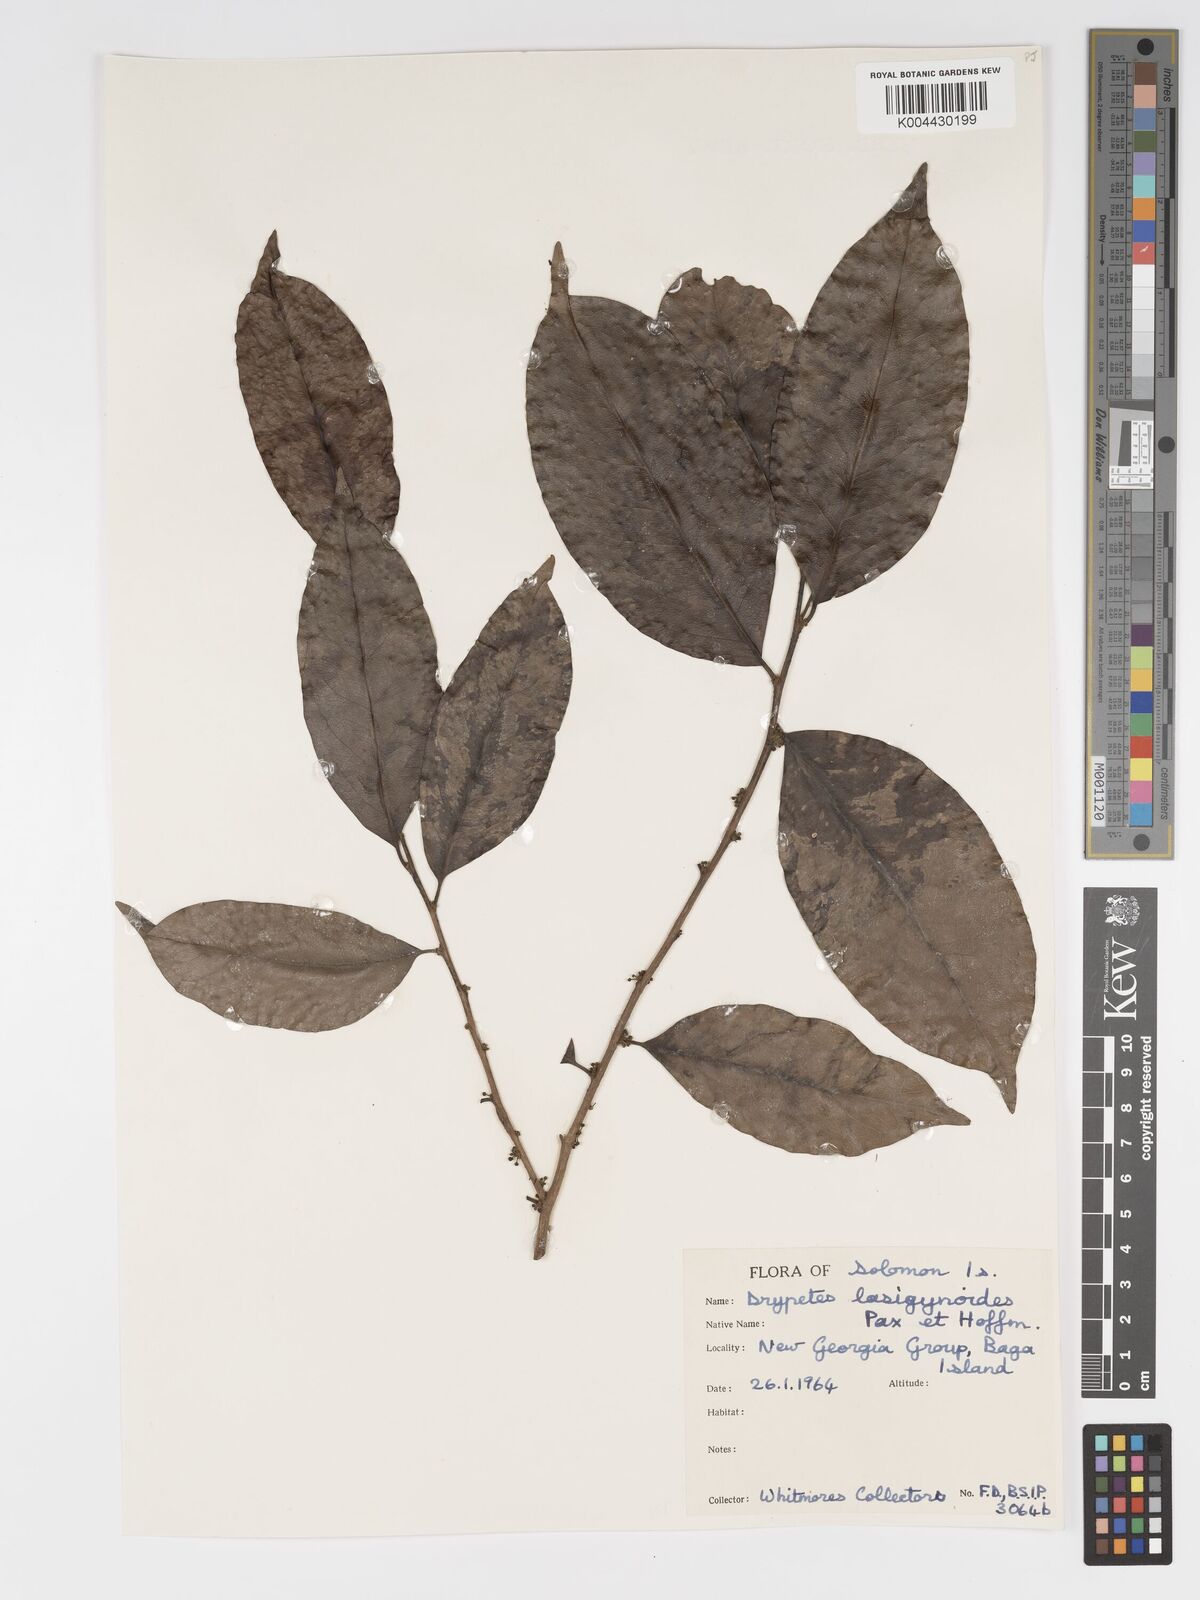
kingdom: Plantae
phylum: Tracheophyta
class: Magnoliopsida
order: Malpighiales
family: Putranjivaceae
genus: Drypetes
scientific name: Drypetes lasiogynoides
